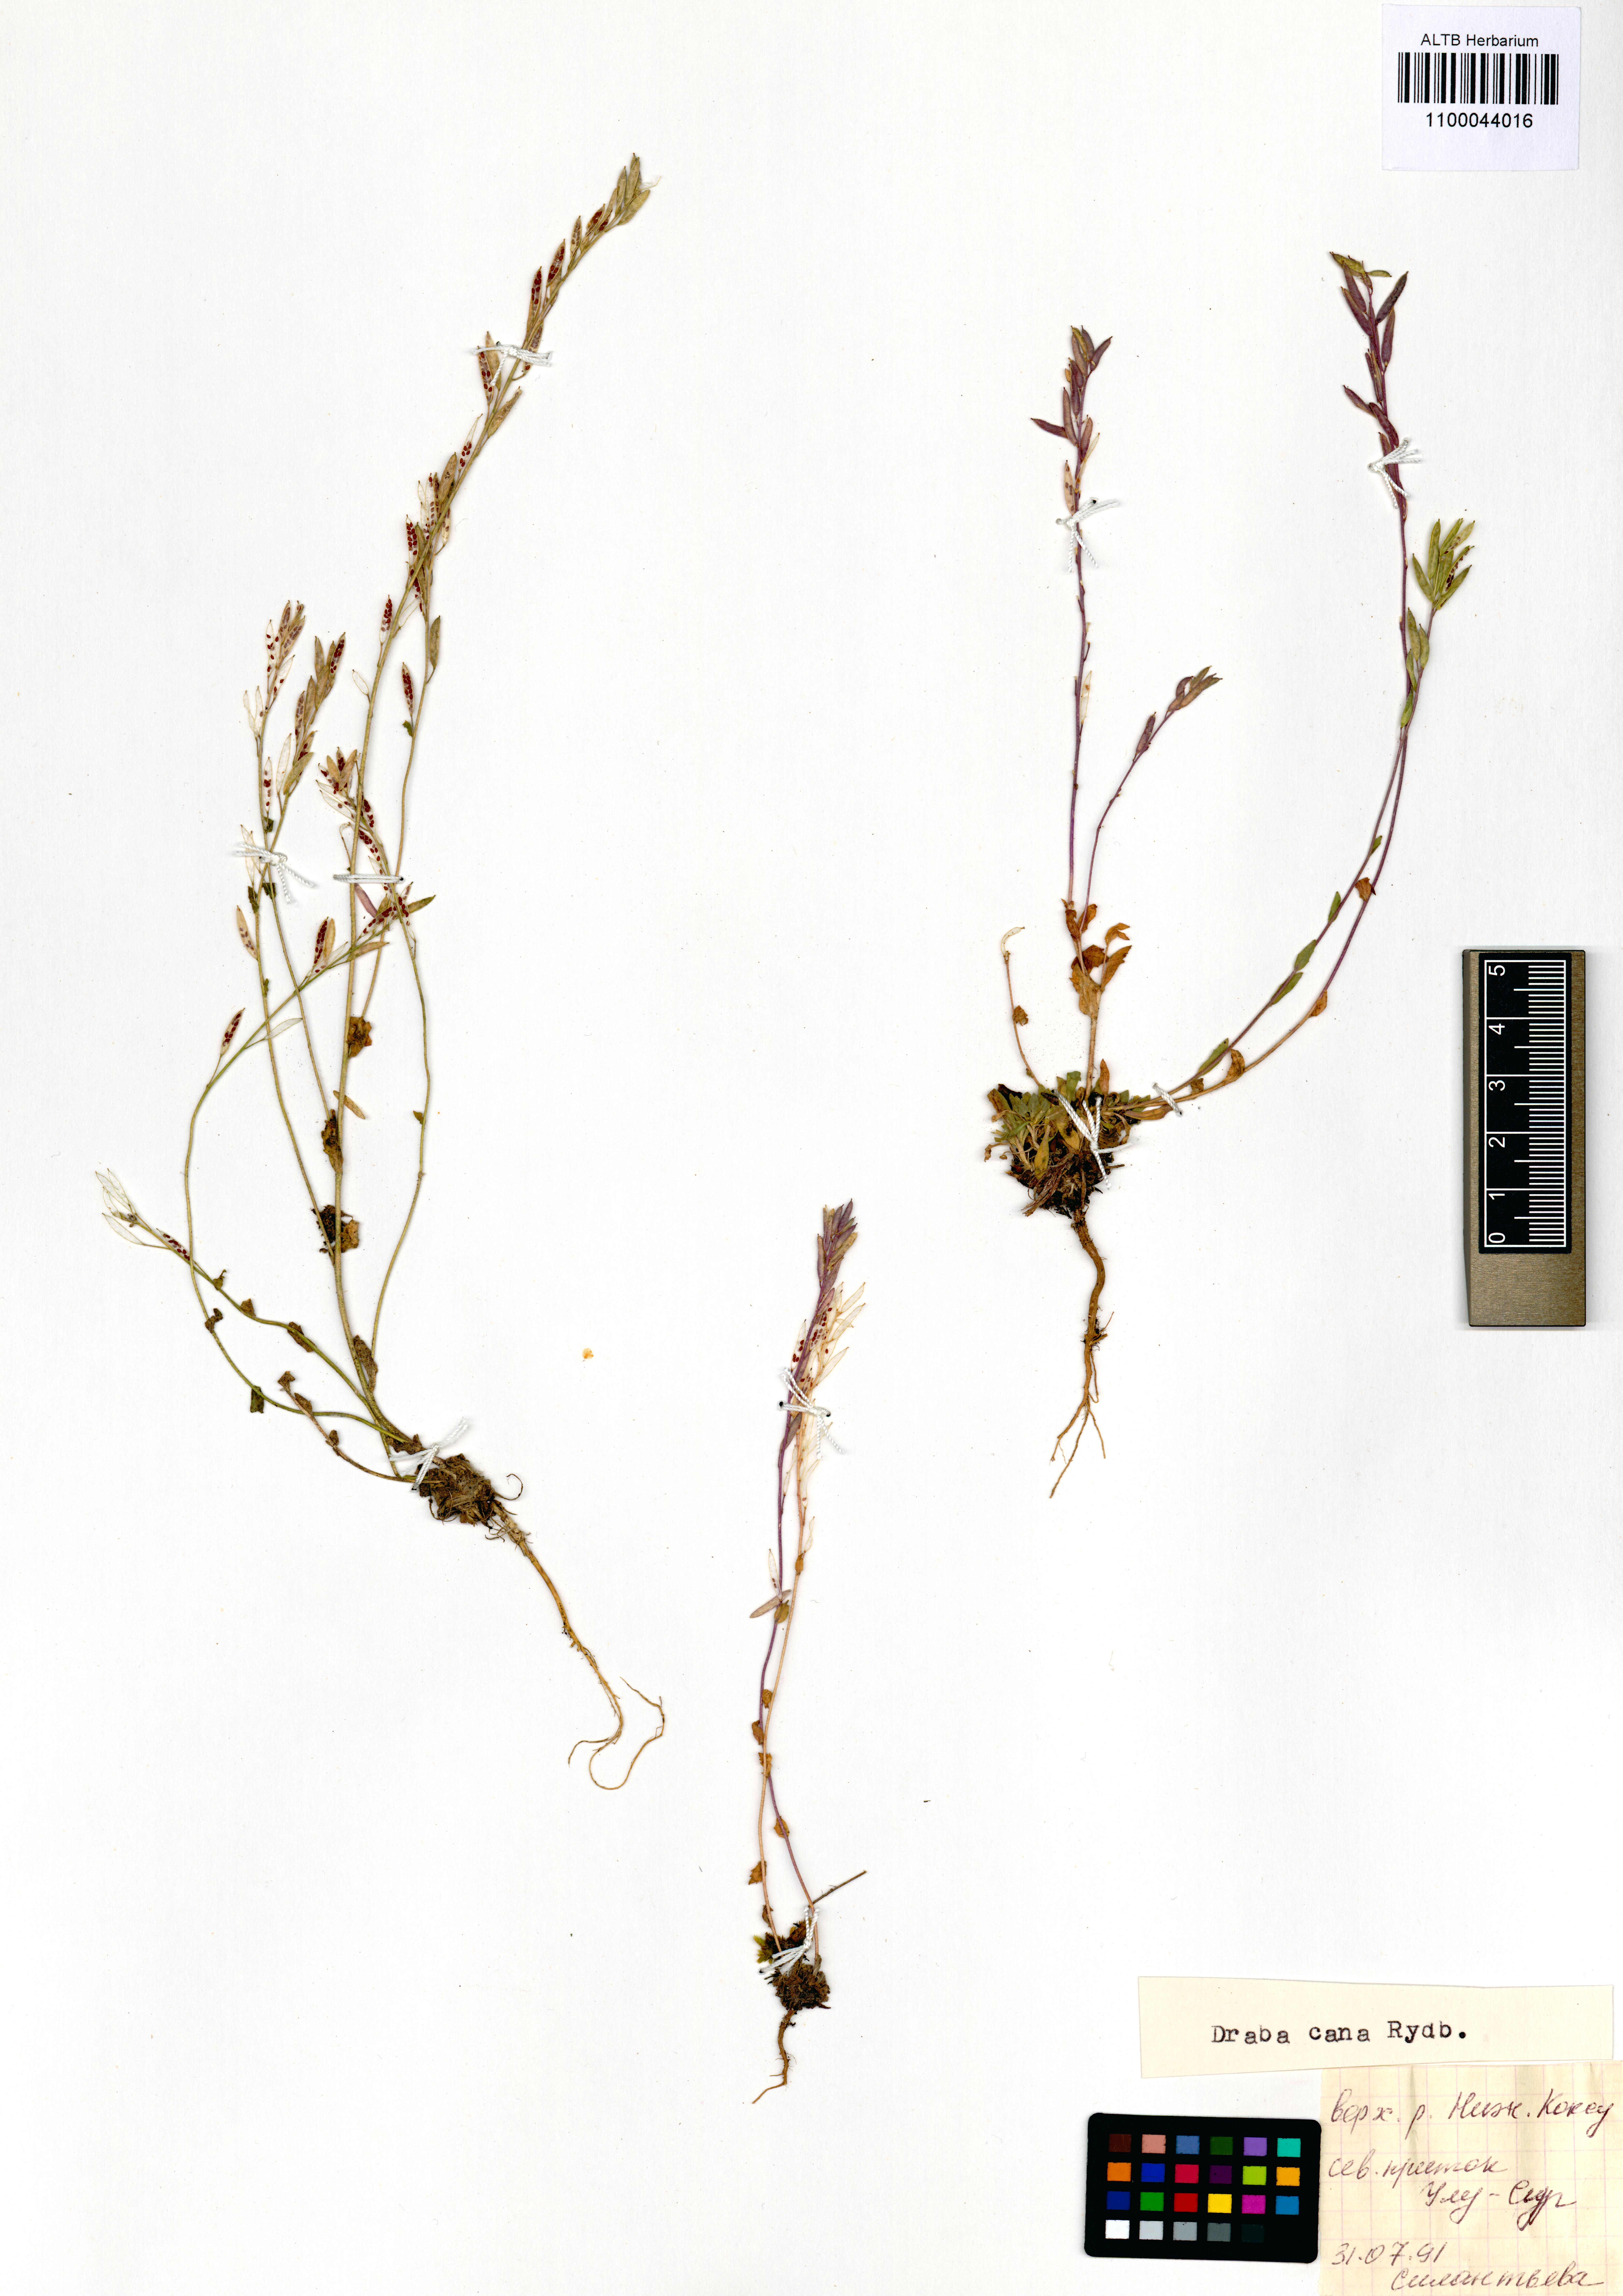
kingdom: Plantae
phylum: Tracheophyta
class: Magnoliopsida
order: Brassicales
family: Brassicaceae
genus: Draba
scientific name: Draba cana
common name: Hoary draba
